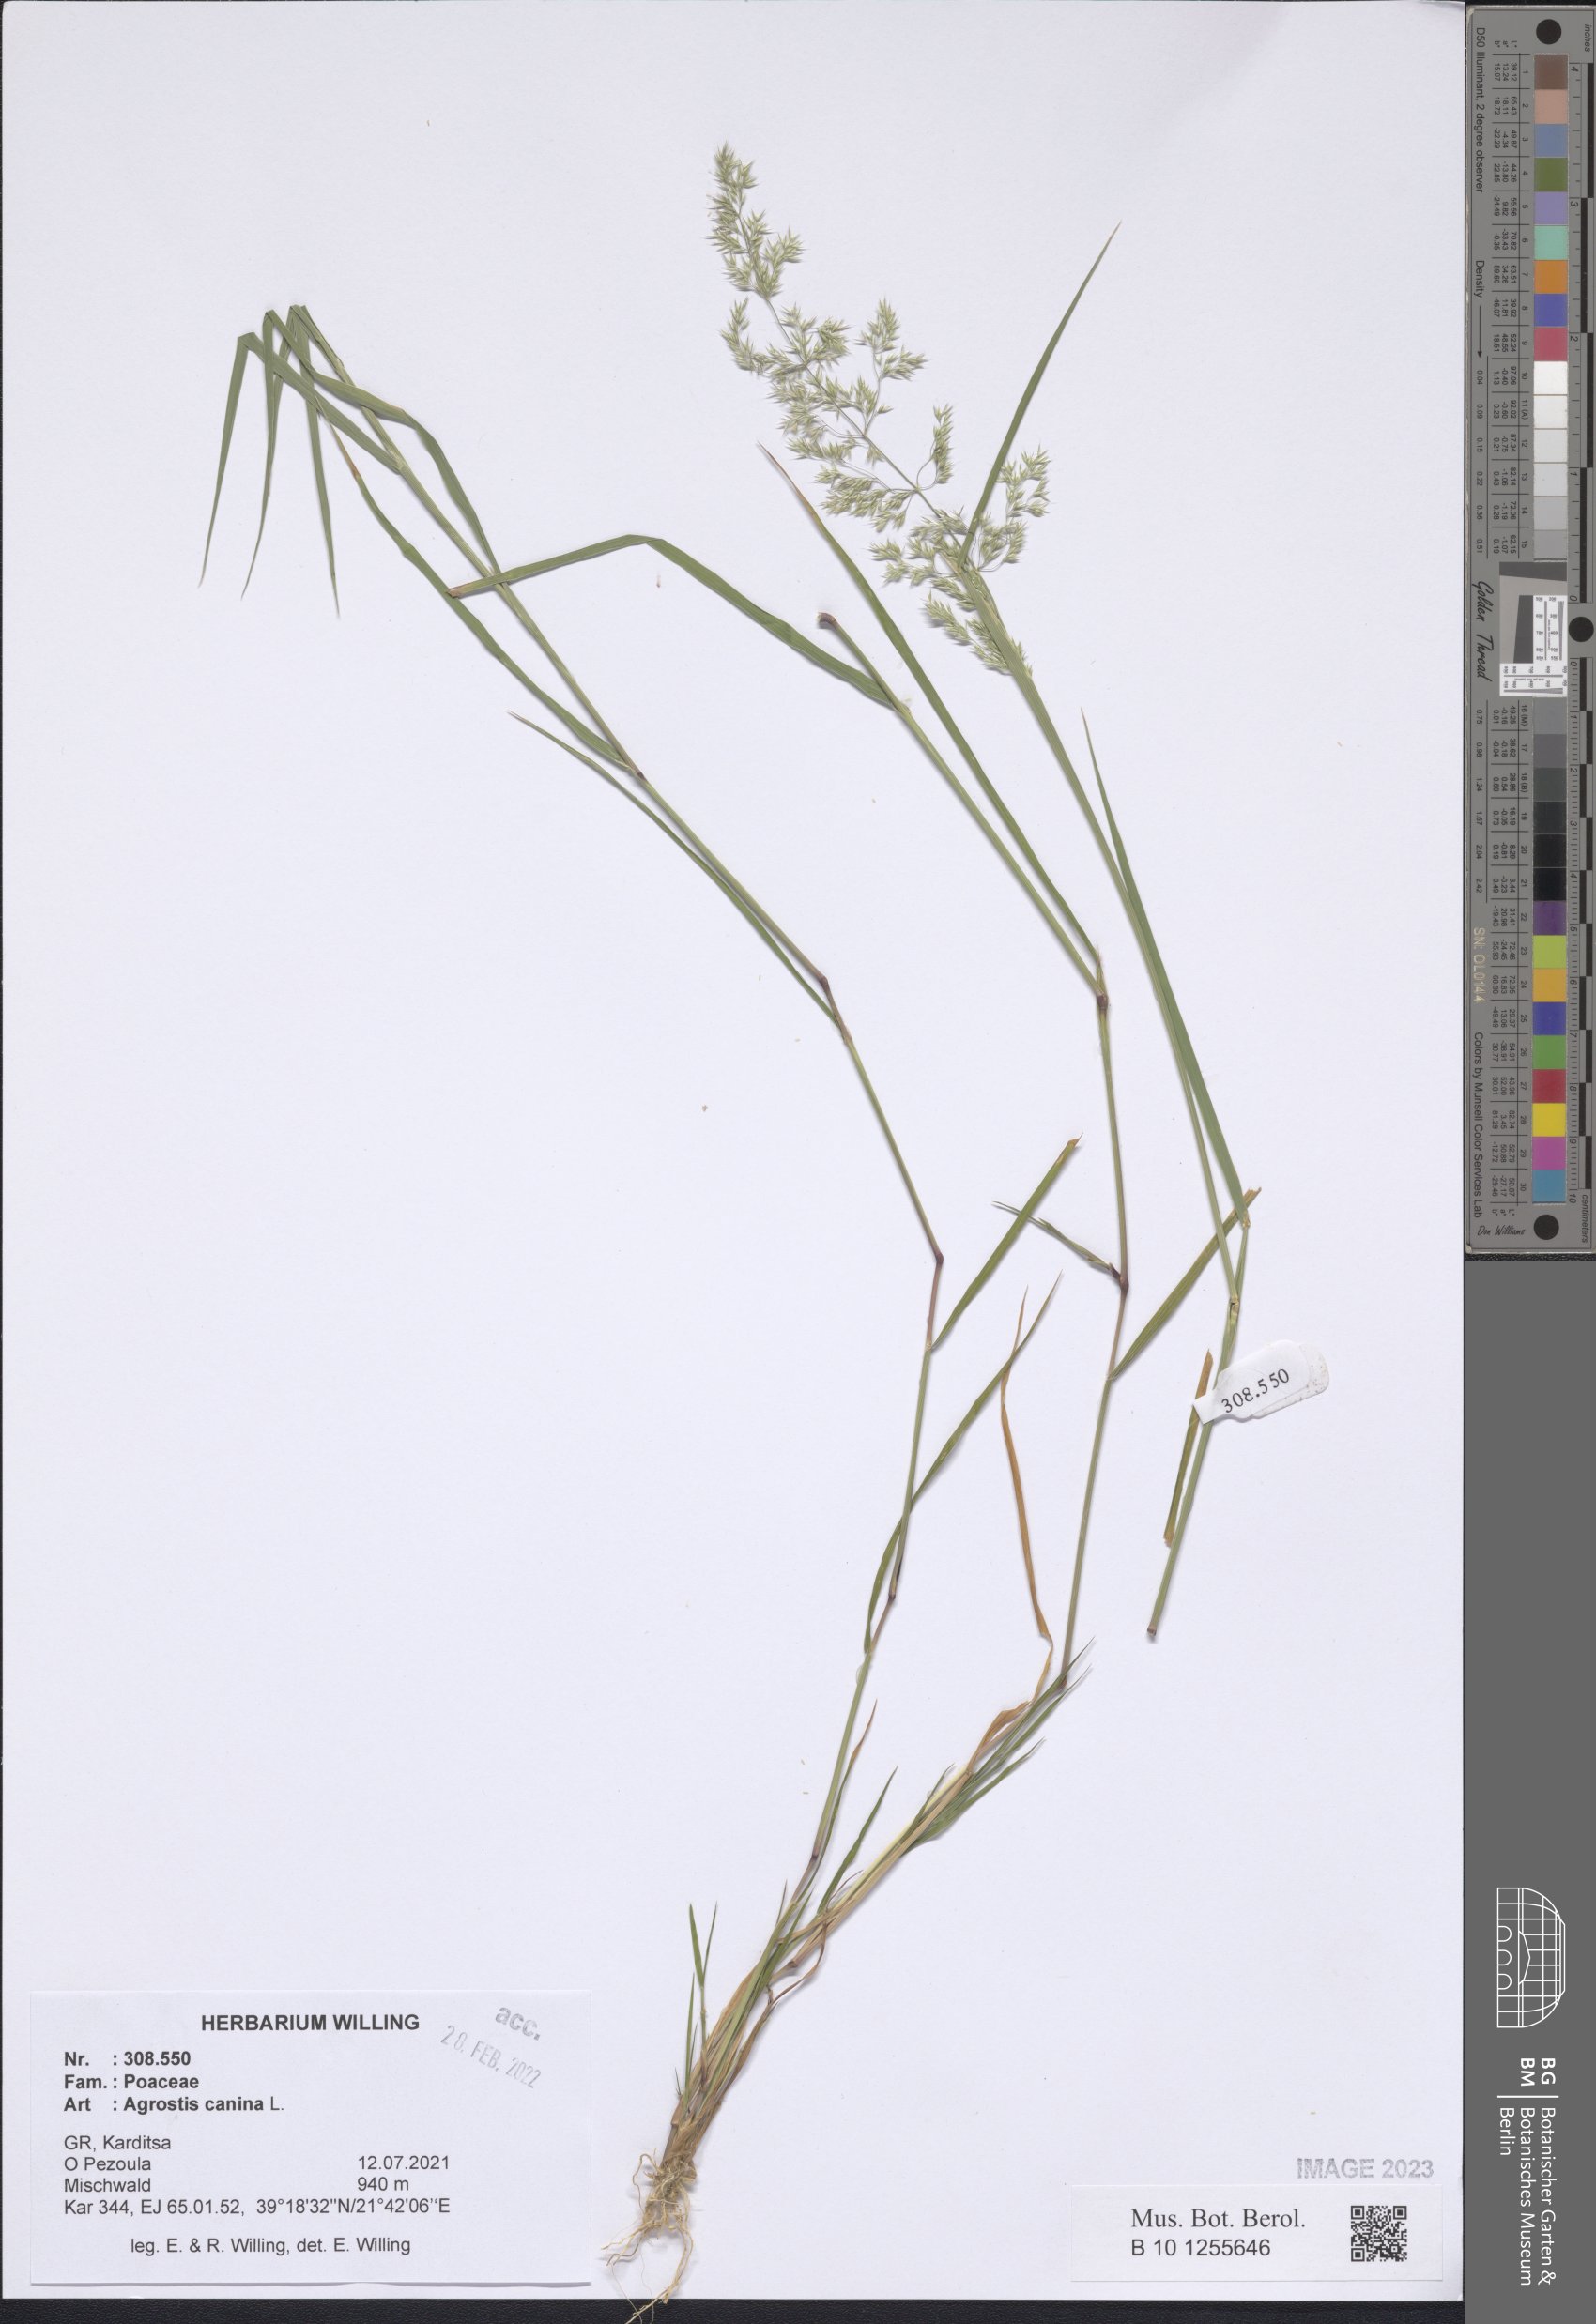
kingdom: Plantae
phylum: Tracheophyta
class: Liliopsida
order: Poales
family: Poaceae
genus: Agrostis
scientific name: Agrostis canina
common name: Velvet bent
